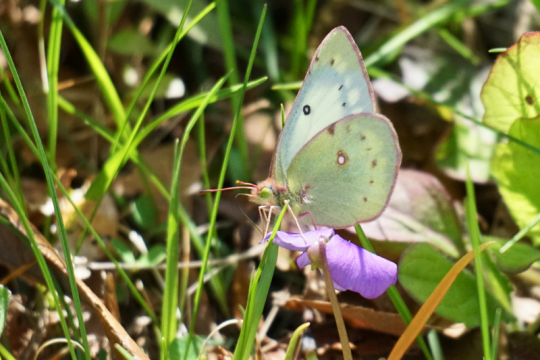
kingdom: Animalia
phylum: Arthropoda
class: Insecta
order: Lepidoptera
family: Pieridae
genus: Colias
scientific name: Colias philodice
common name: Clouded Sulphur
